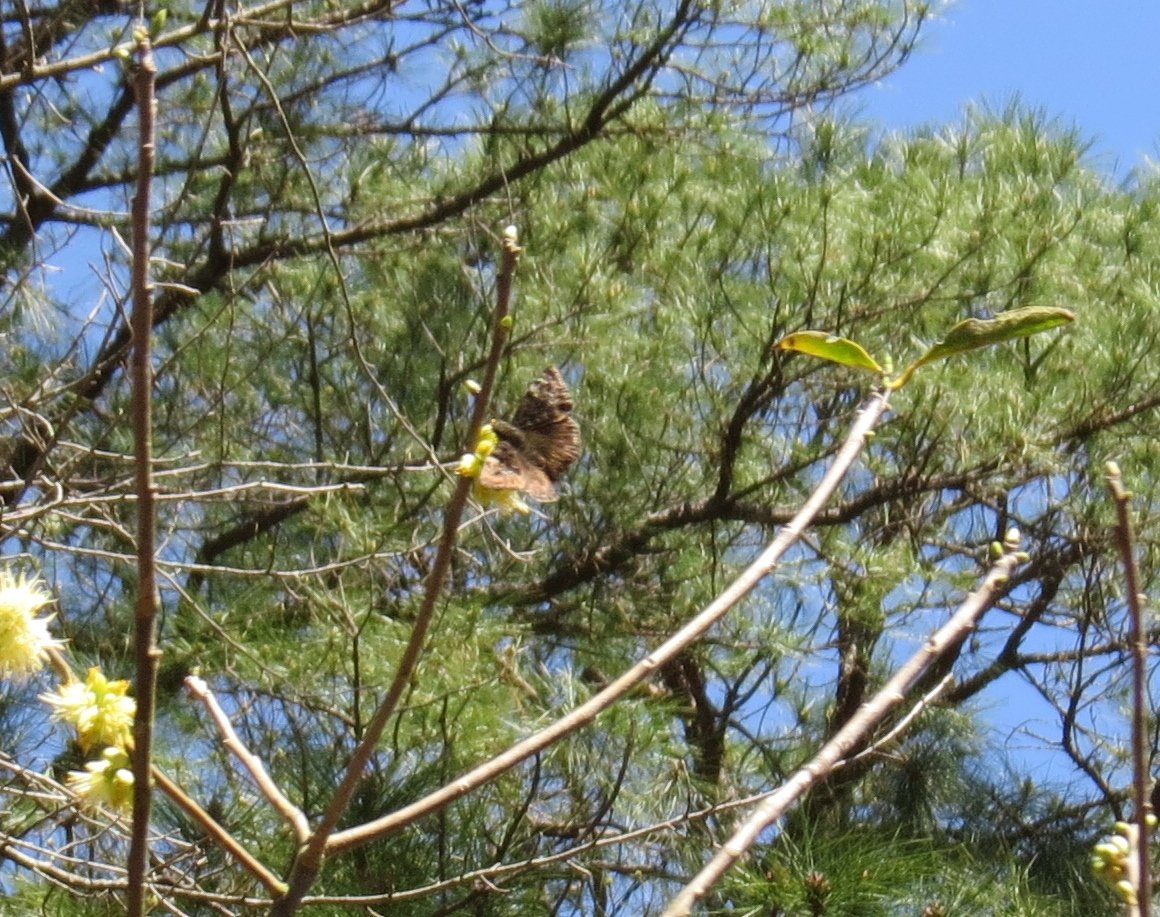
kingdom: Animalia
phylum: Arthropoda
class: Insecta
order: Lepidoptera
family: Hesperiidae
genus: Gesta
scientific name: Gesta
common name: Horace's Duskywing
